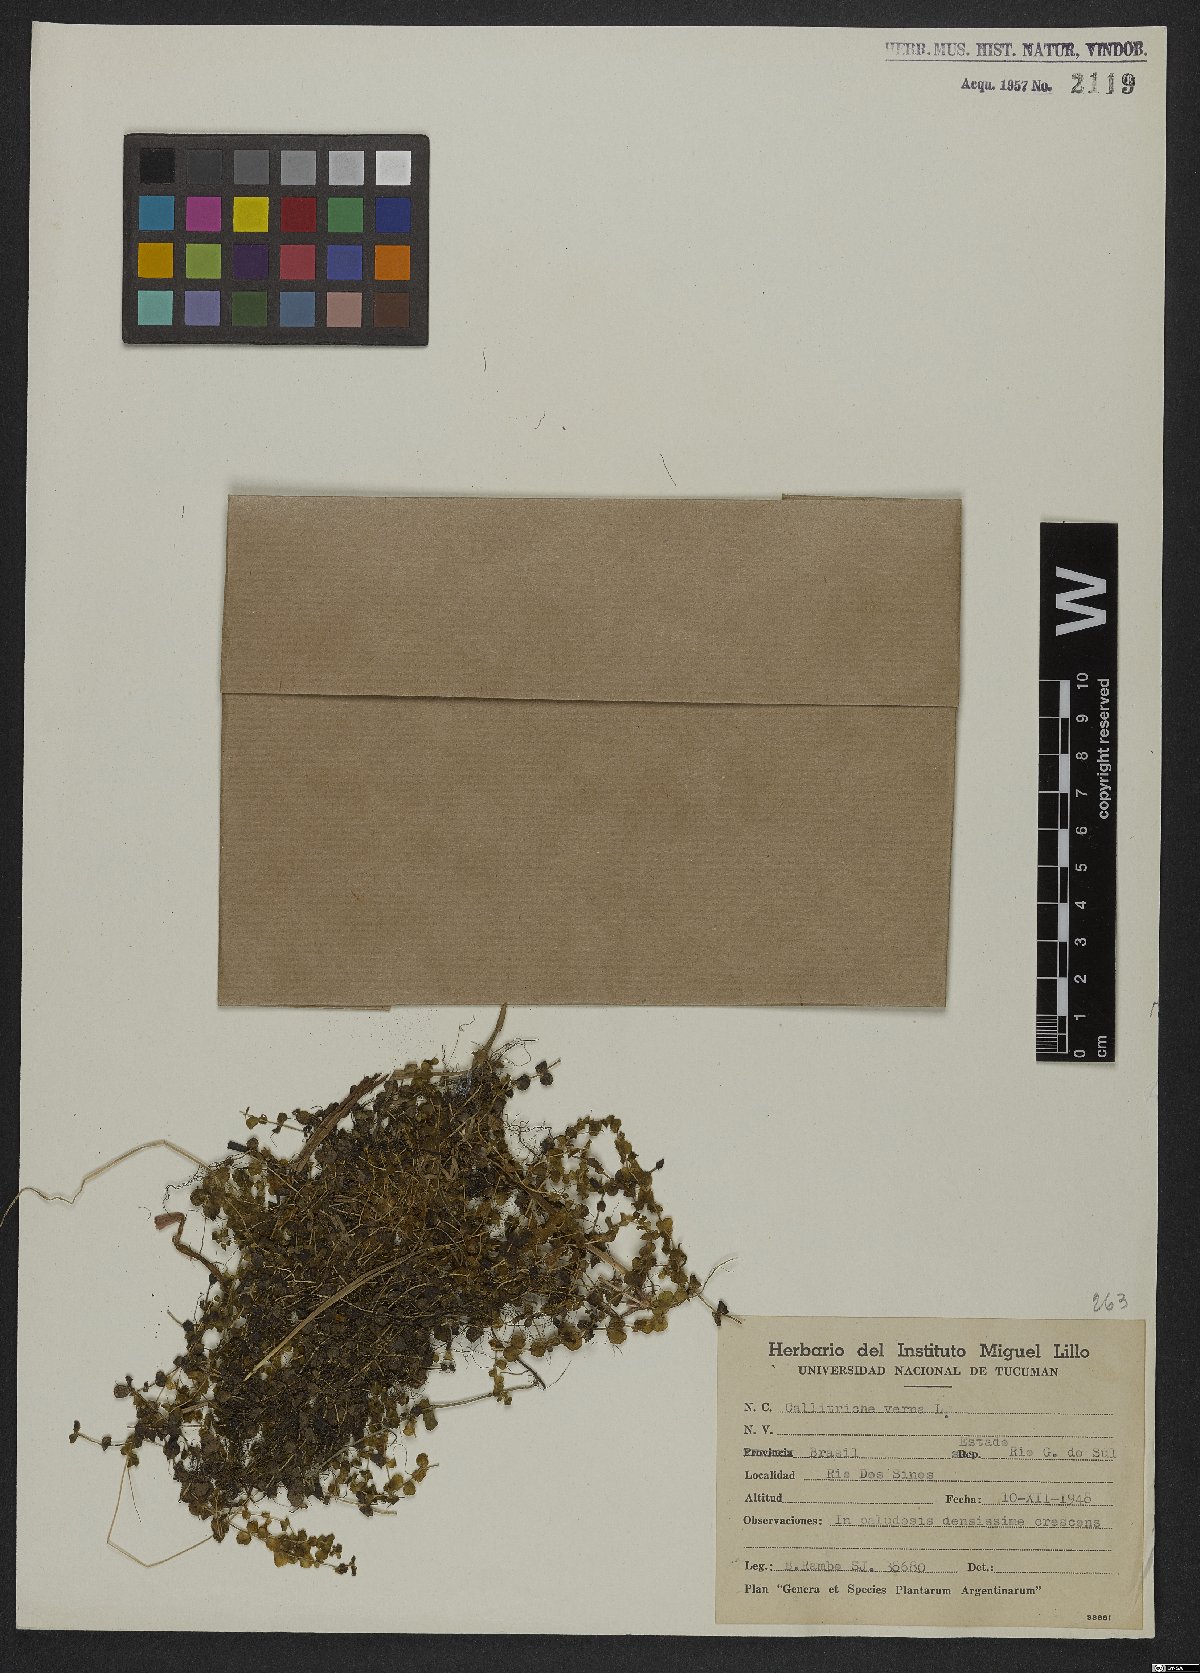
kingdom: Plantae
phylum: Tracheophyta
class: Magnoliopsida
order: Lamiales
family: Plantaginaceae
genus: Callitriche
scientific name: Callitriche palustris
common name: Spring water-starwort
